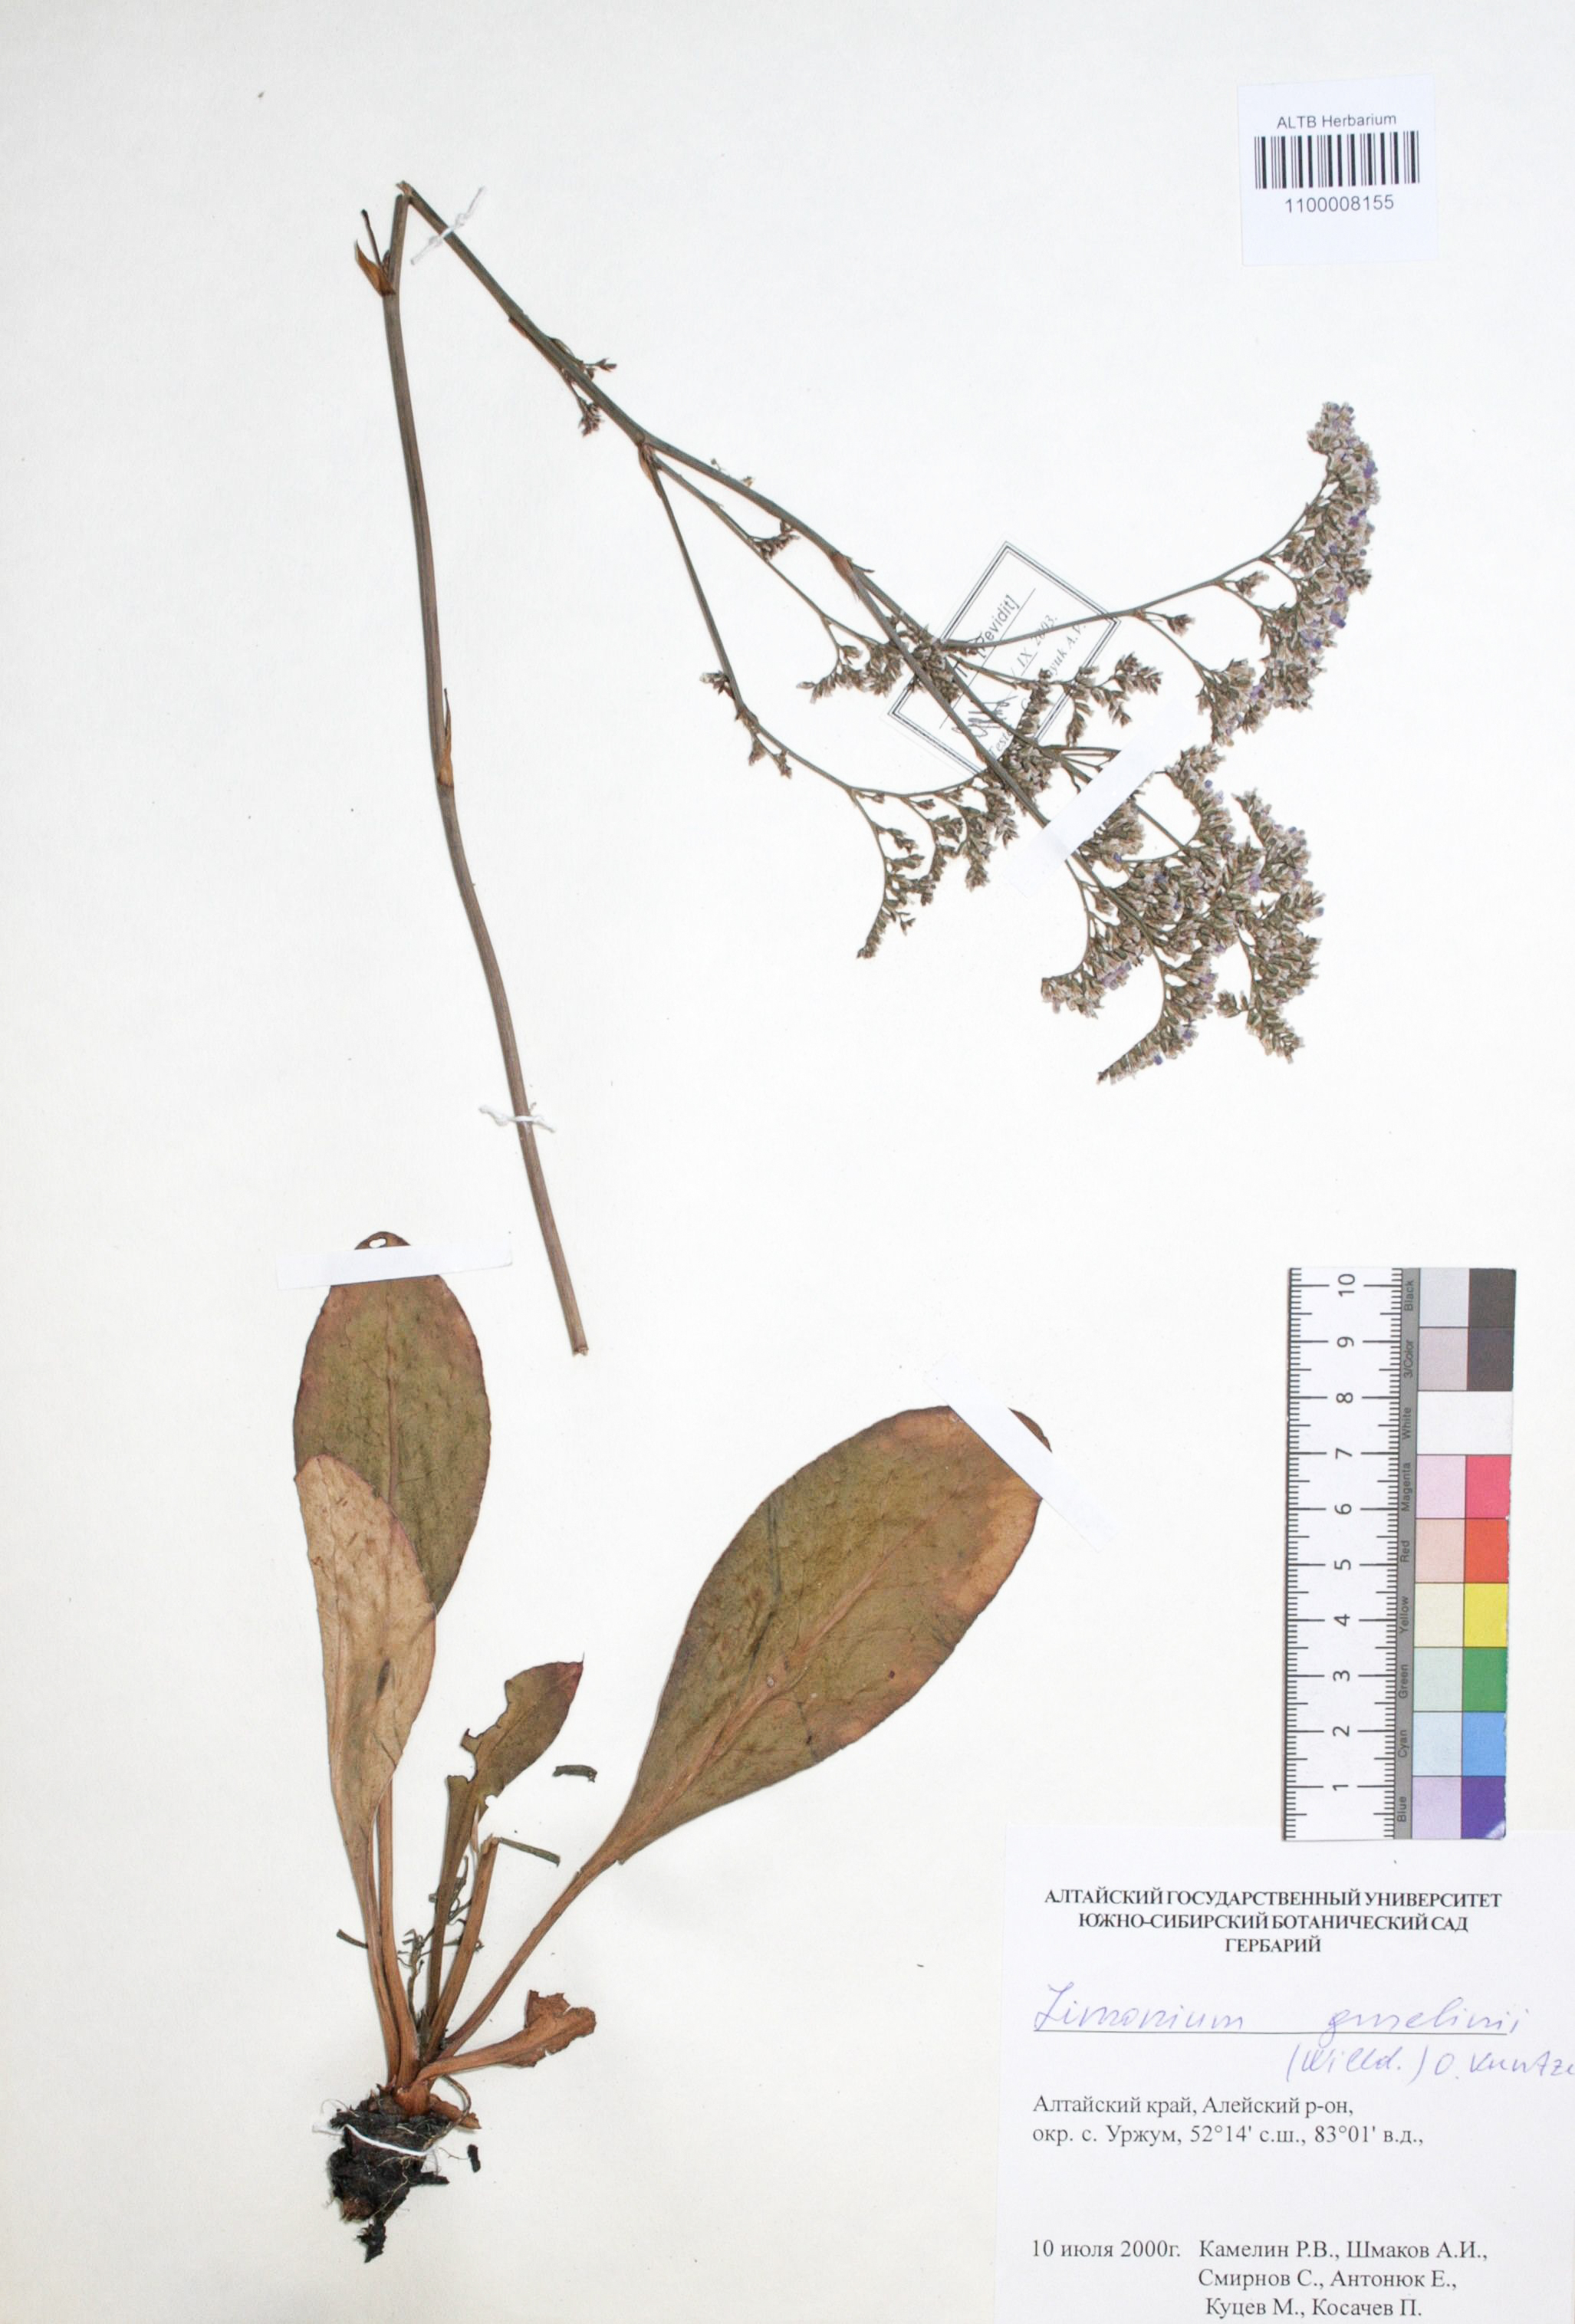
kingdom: Plantae
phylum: Tracheophyta
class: Magnoliopsida
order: Caryophyllales
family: Plumbaginaceae
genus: Limonium
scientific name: Limonium gmelini
